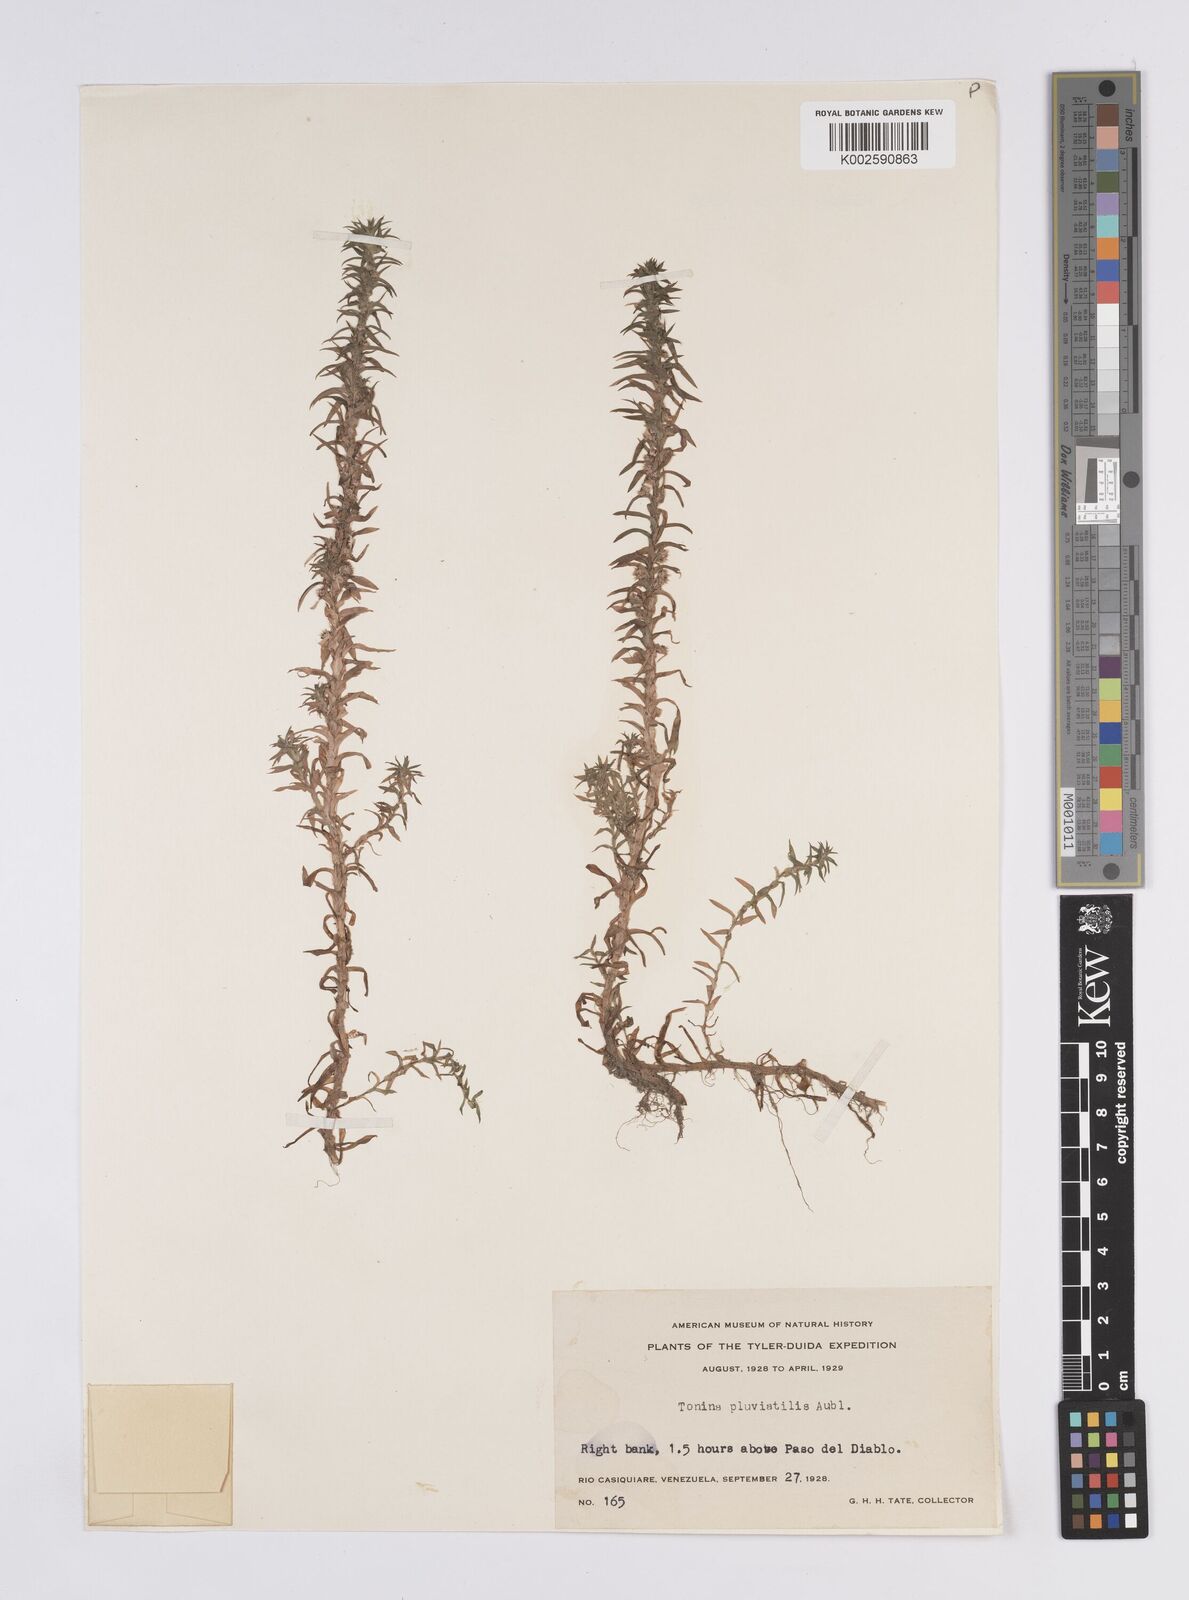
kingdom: Plantae
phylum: Tracheophyta
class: Liliopsida
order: Poales
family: Eriocaulaceae
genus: Paepalanthus
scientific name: Paepalanthus fluviatilis
